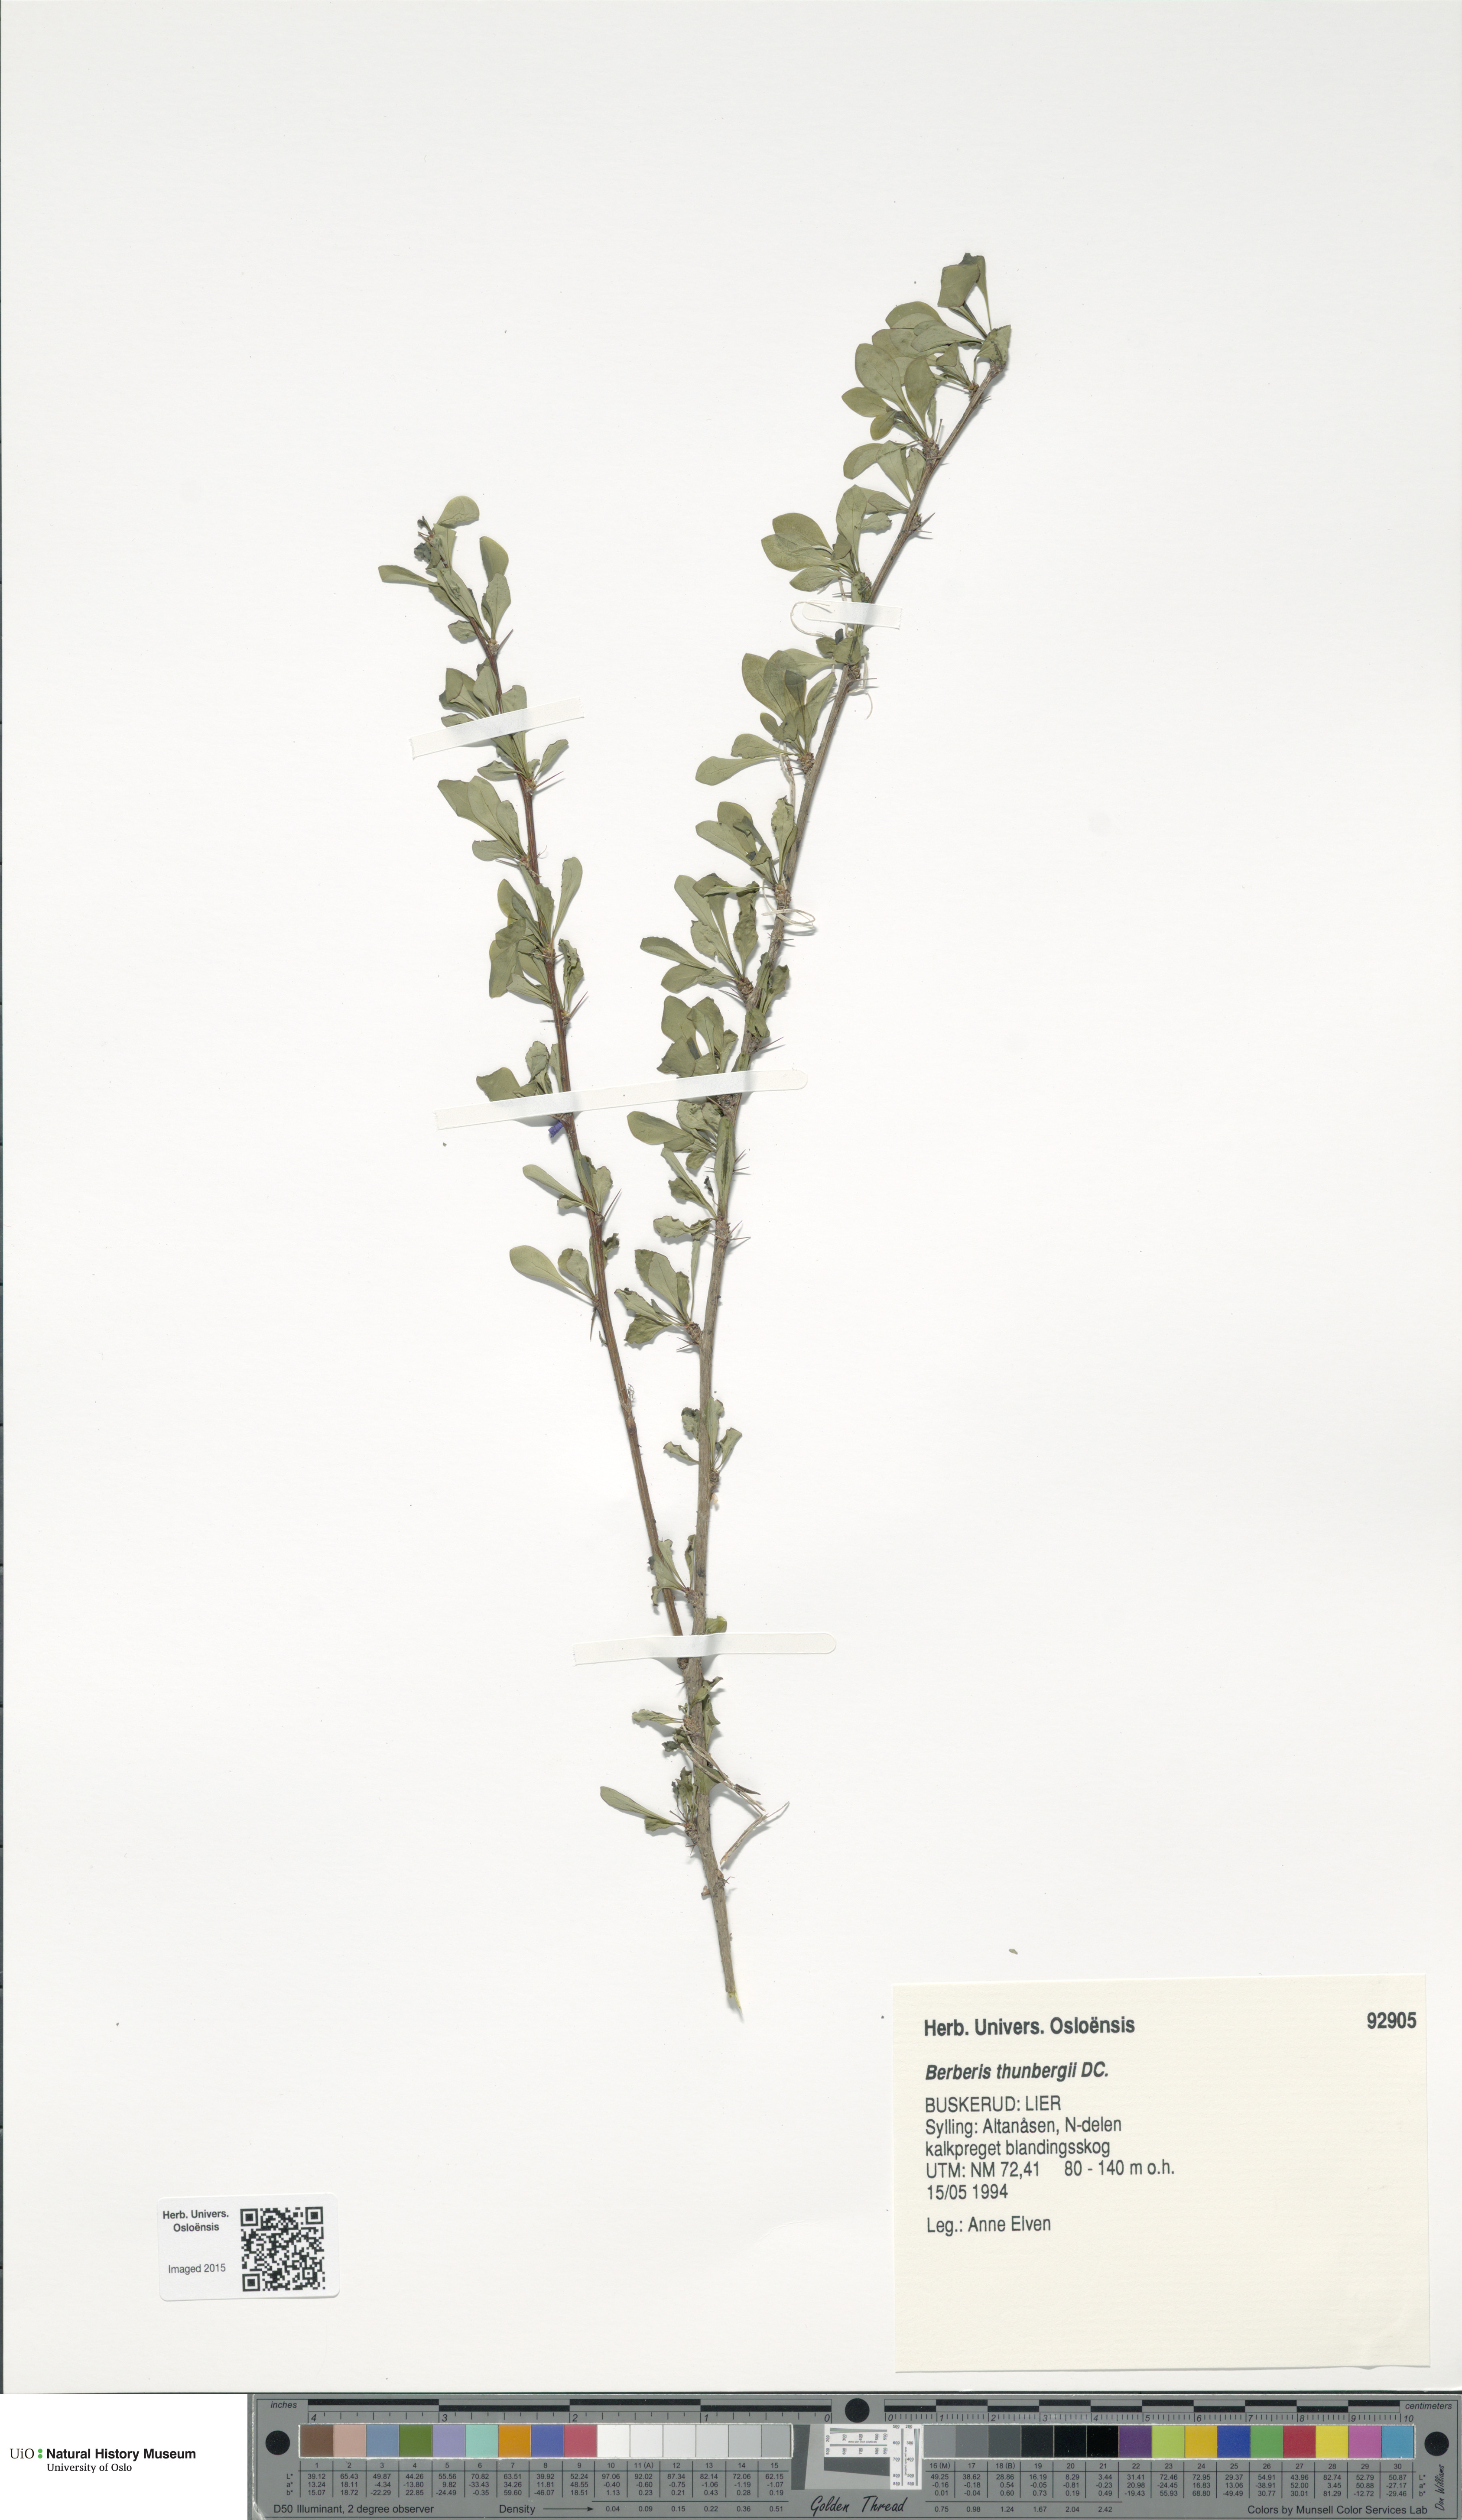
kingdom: Plantae
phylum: Tracheophyta
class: Magnoliopsida
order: Ranunculales
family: Berberidaceae
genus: Berberis
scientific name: Berberis thunbergii
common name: Japanese barberry
